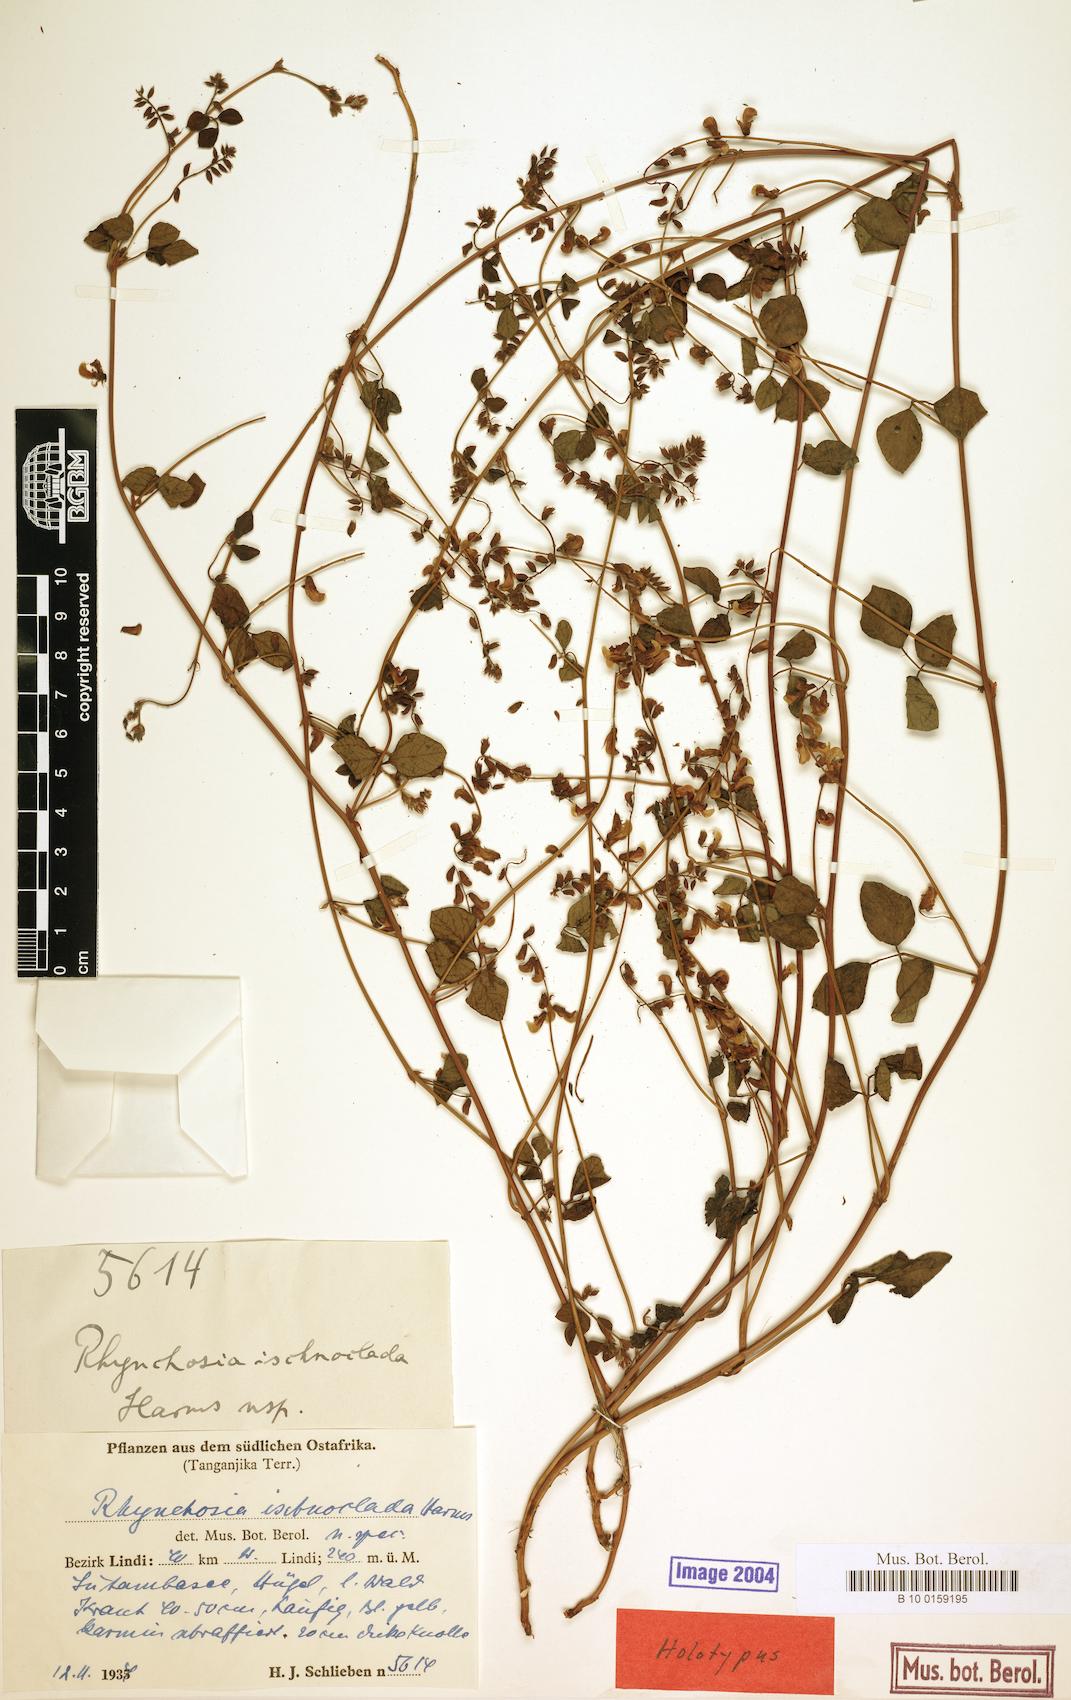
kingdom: Plantae
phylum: Tracheophyta
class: Magnoliopsida
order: Fabales
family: Fabaceae
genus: Rhynchosia
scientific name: Rhynchosia minima
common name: Least snoutbean
